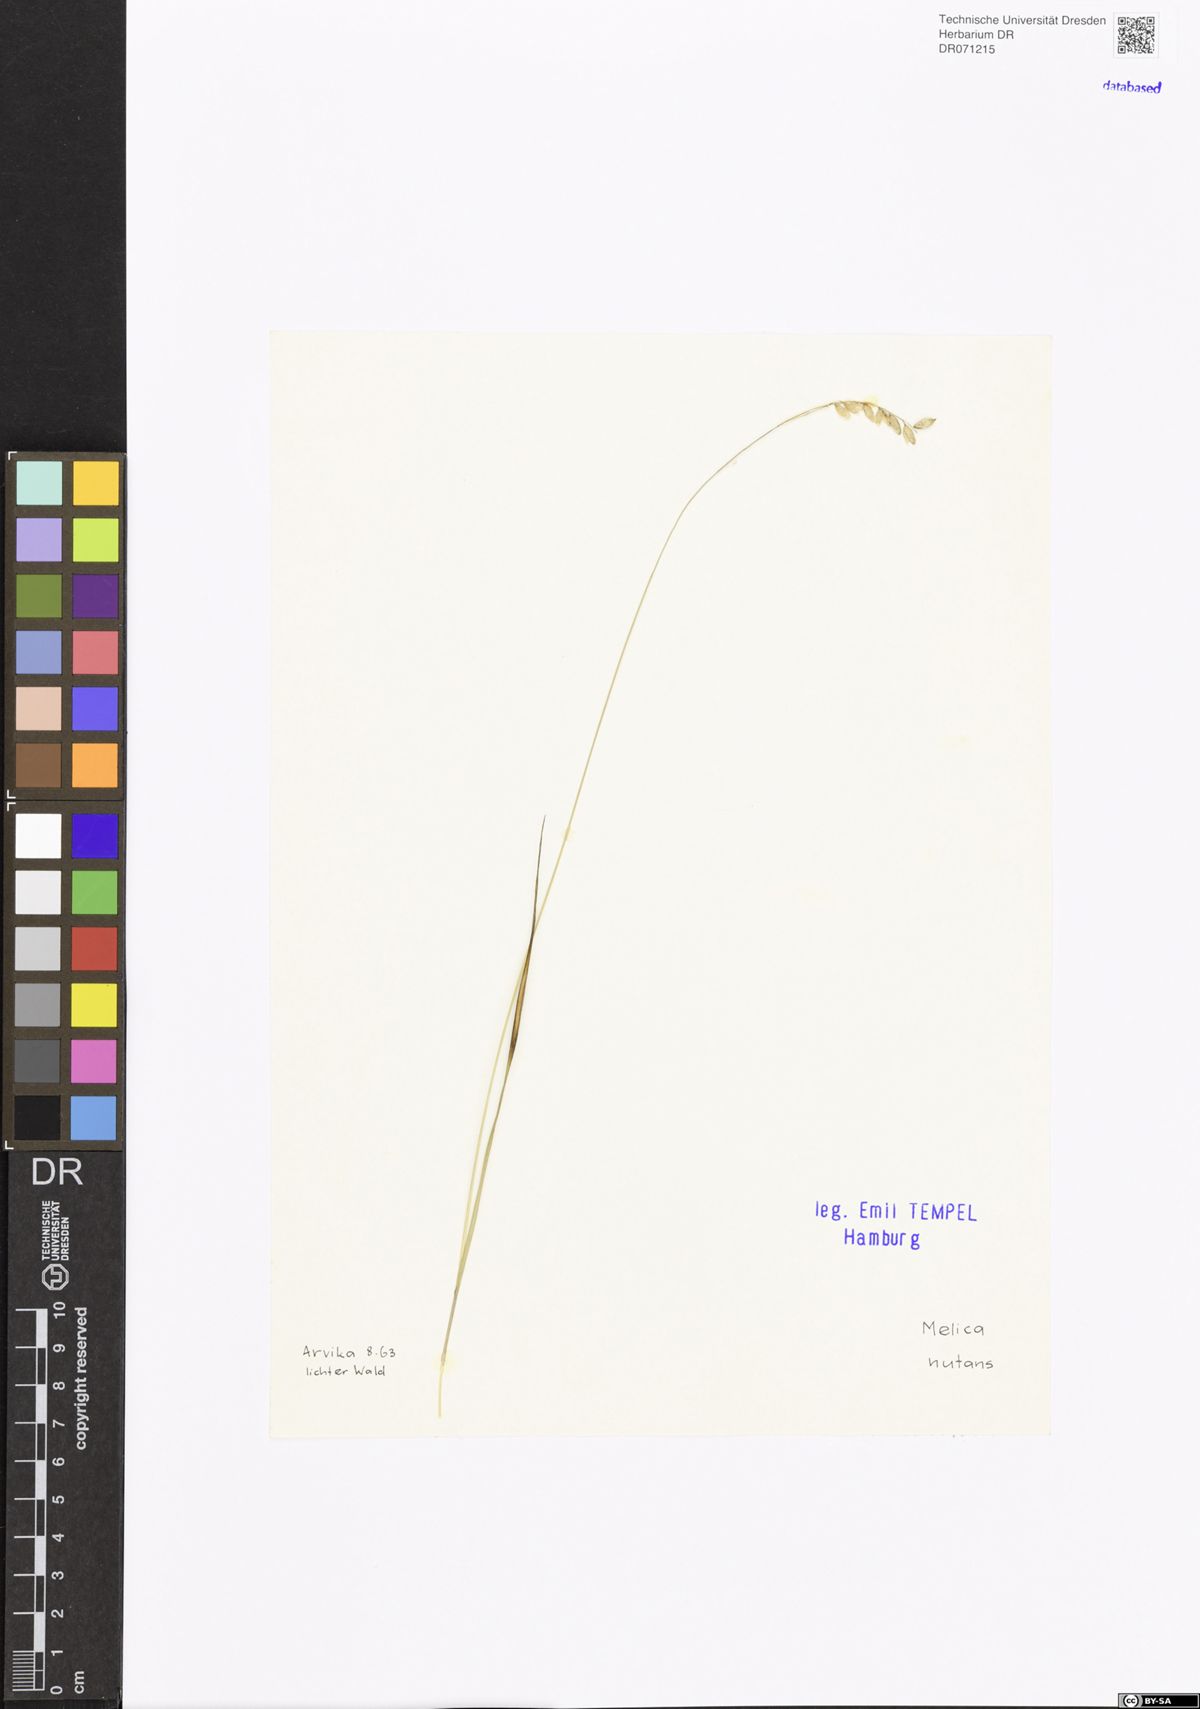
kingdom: Plantae
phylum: Tracheophyta
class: Liliopsida
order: Poales
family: Poaceae
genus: Melica
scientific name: Melica nutans
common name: Mountain melick
